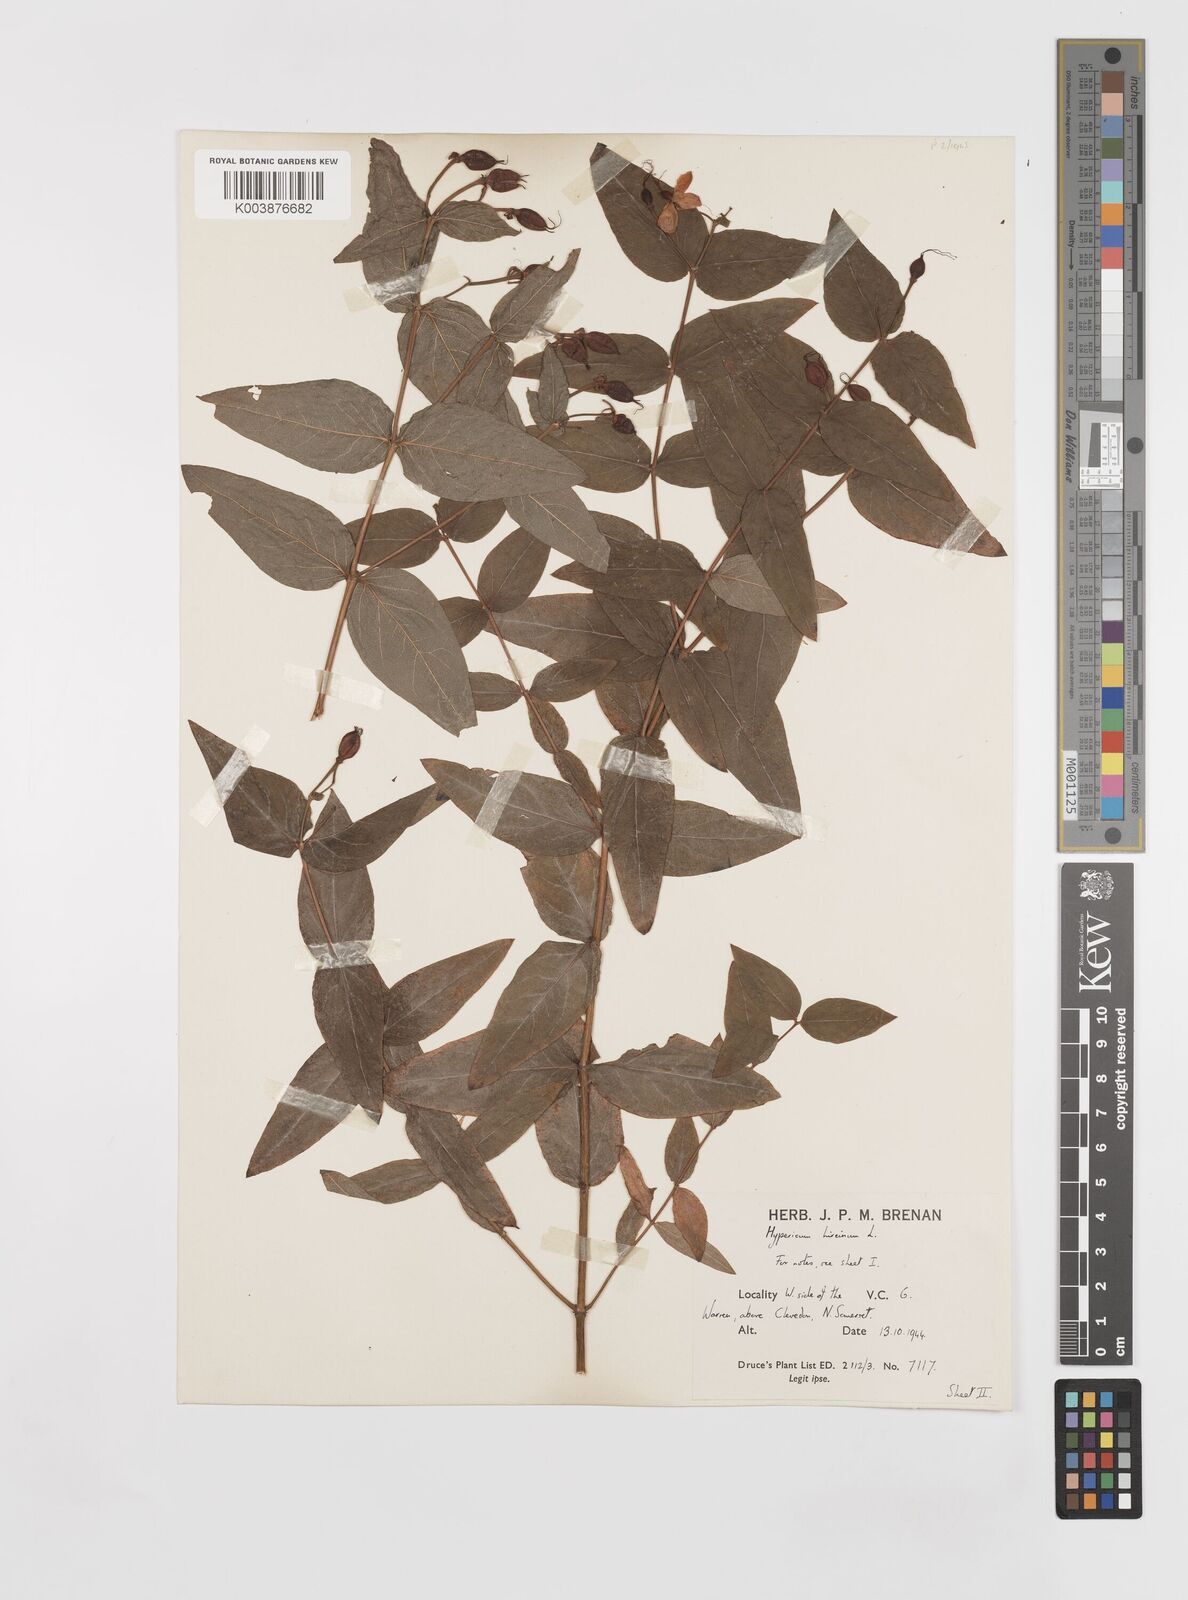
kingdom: Plantae
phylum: Tracheophyta
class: Magnoliopsida
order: Malpighiales
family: Hypericaceae
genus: Hypericum
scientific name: Hypericum hircinum
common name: Stinking tutsan
